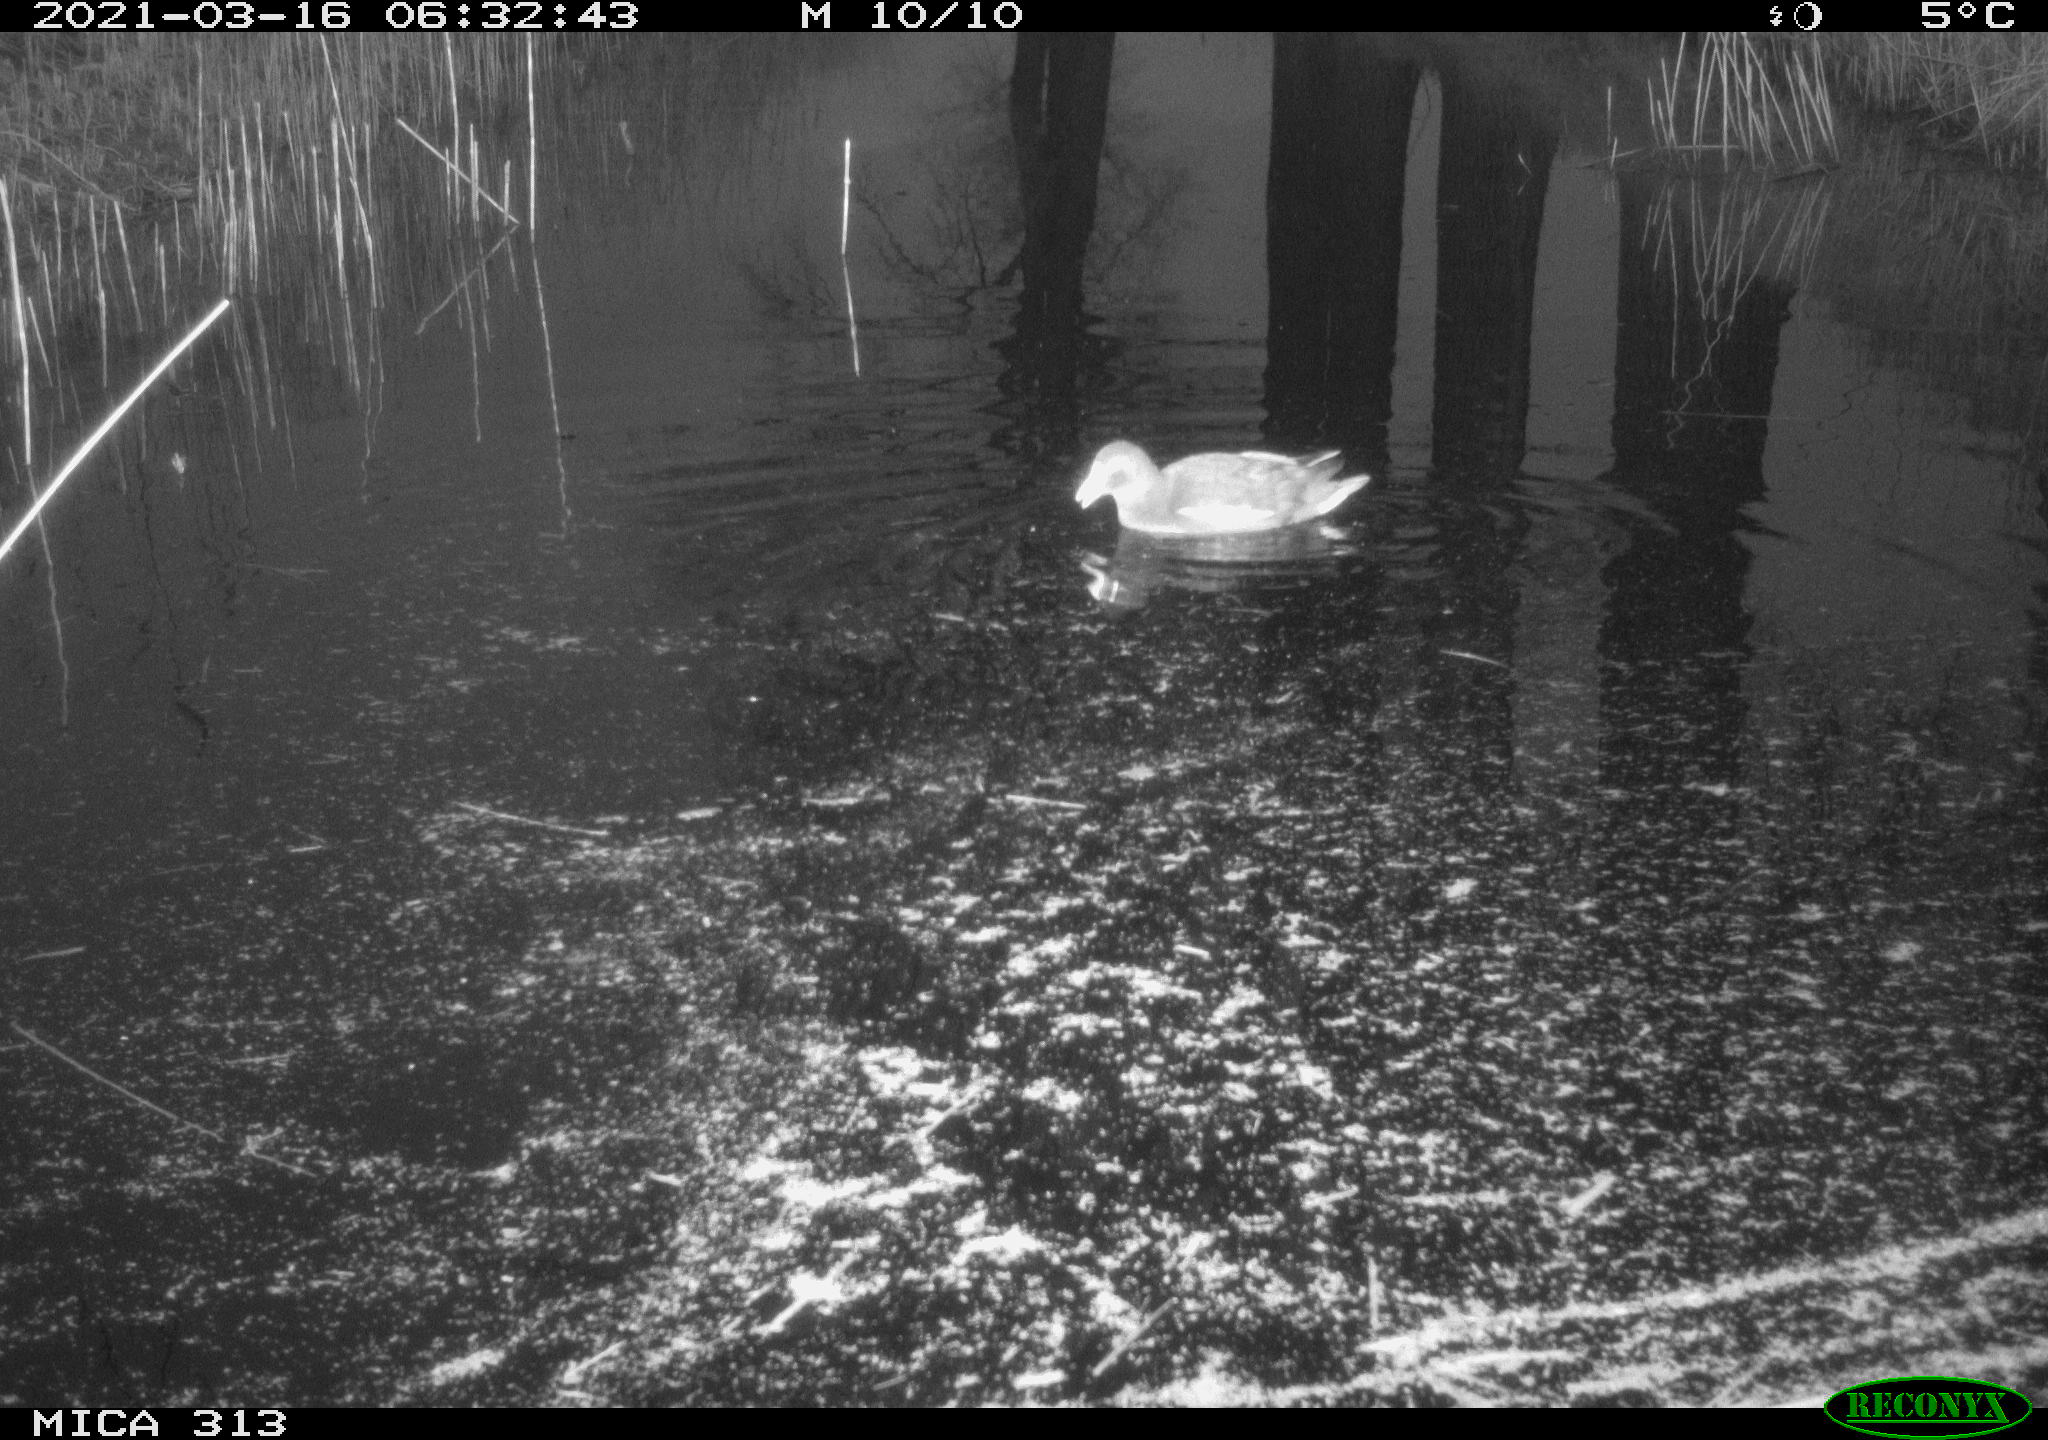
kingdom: Animalia
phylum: Chordata
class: Aves
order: Gruiformes
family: Rallidae
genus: Gallinula
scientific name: Gallinula chloropus
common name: Common moorhen
